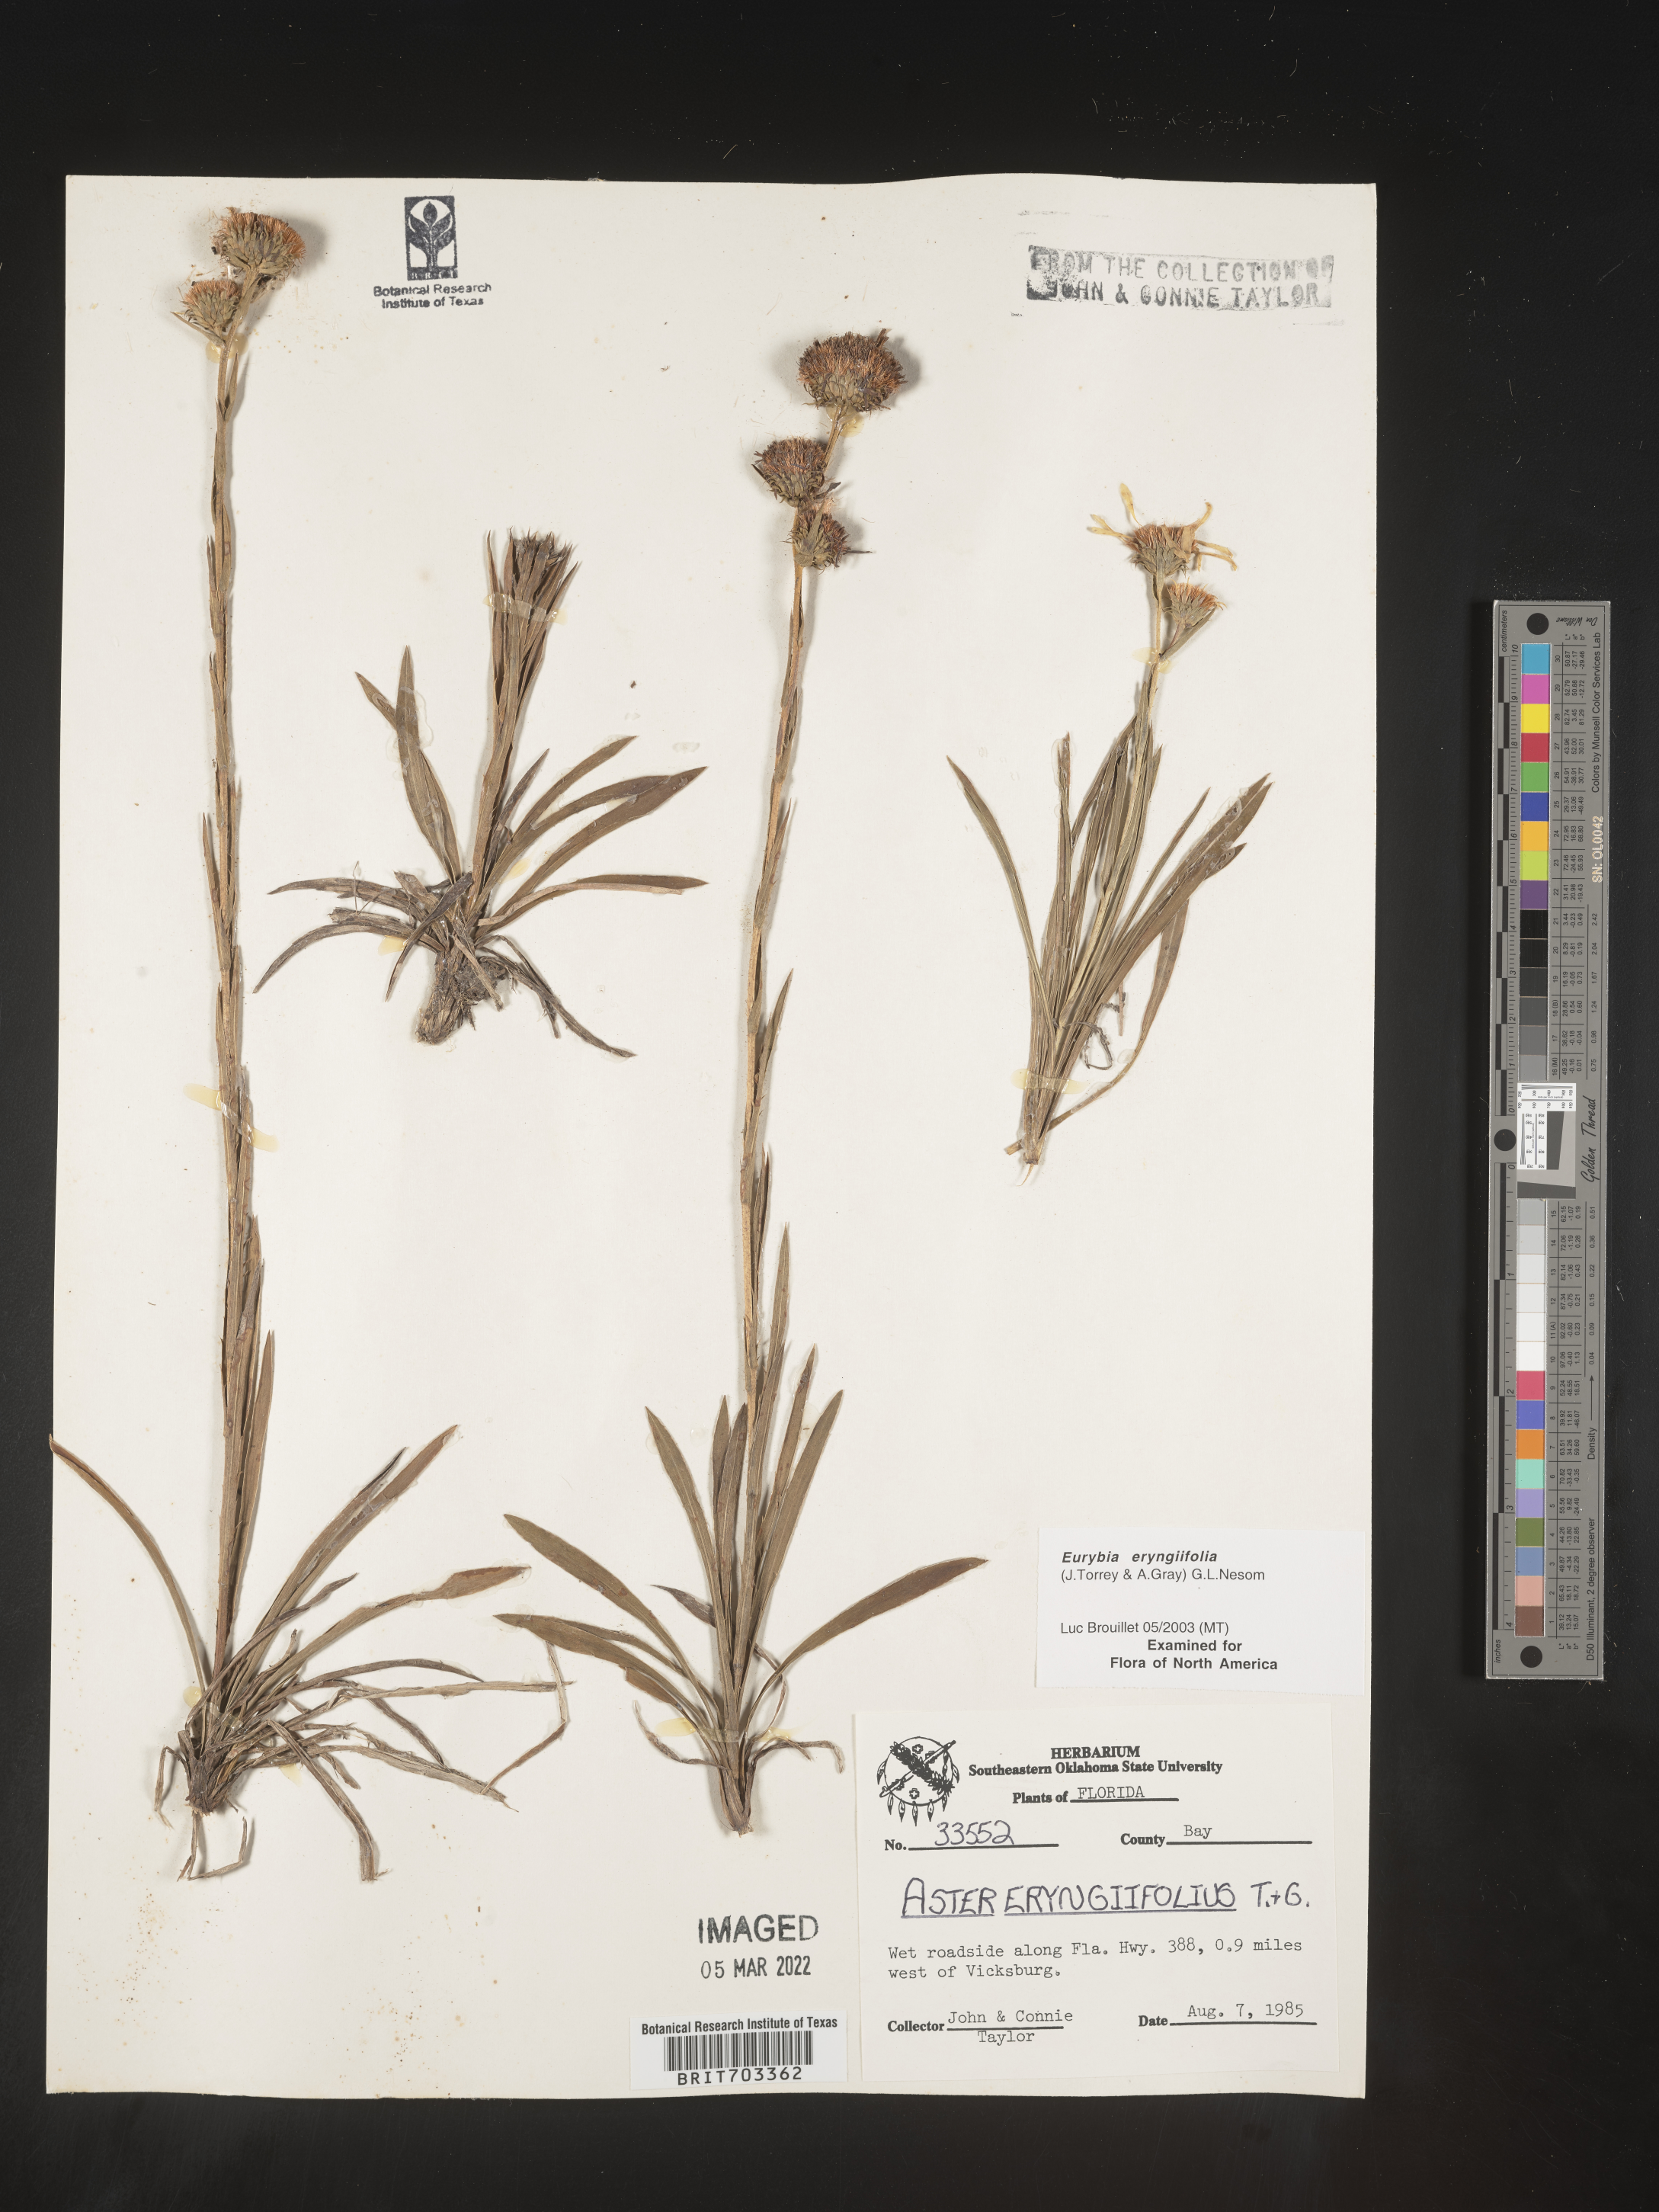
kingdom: Plantae
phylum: Tracheophyta
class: Magnoliopsida
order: Asterales
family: Asteraceae
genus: Eurybia
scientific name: Eurybia eryngiifolia
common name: Thistle-leaf aster
